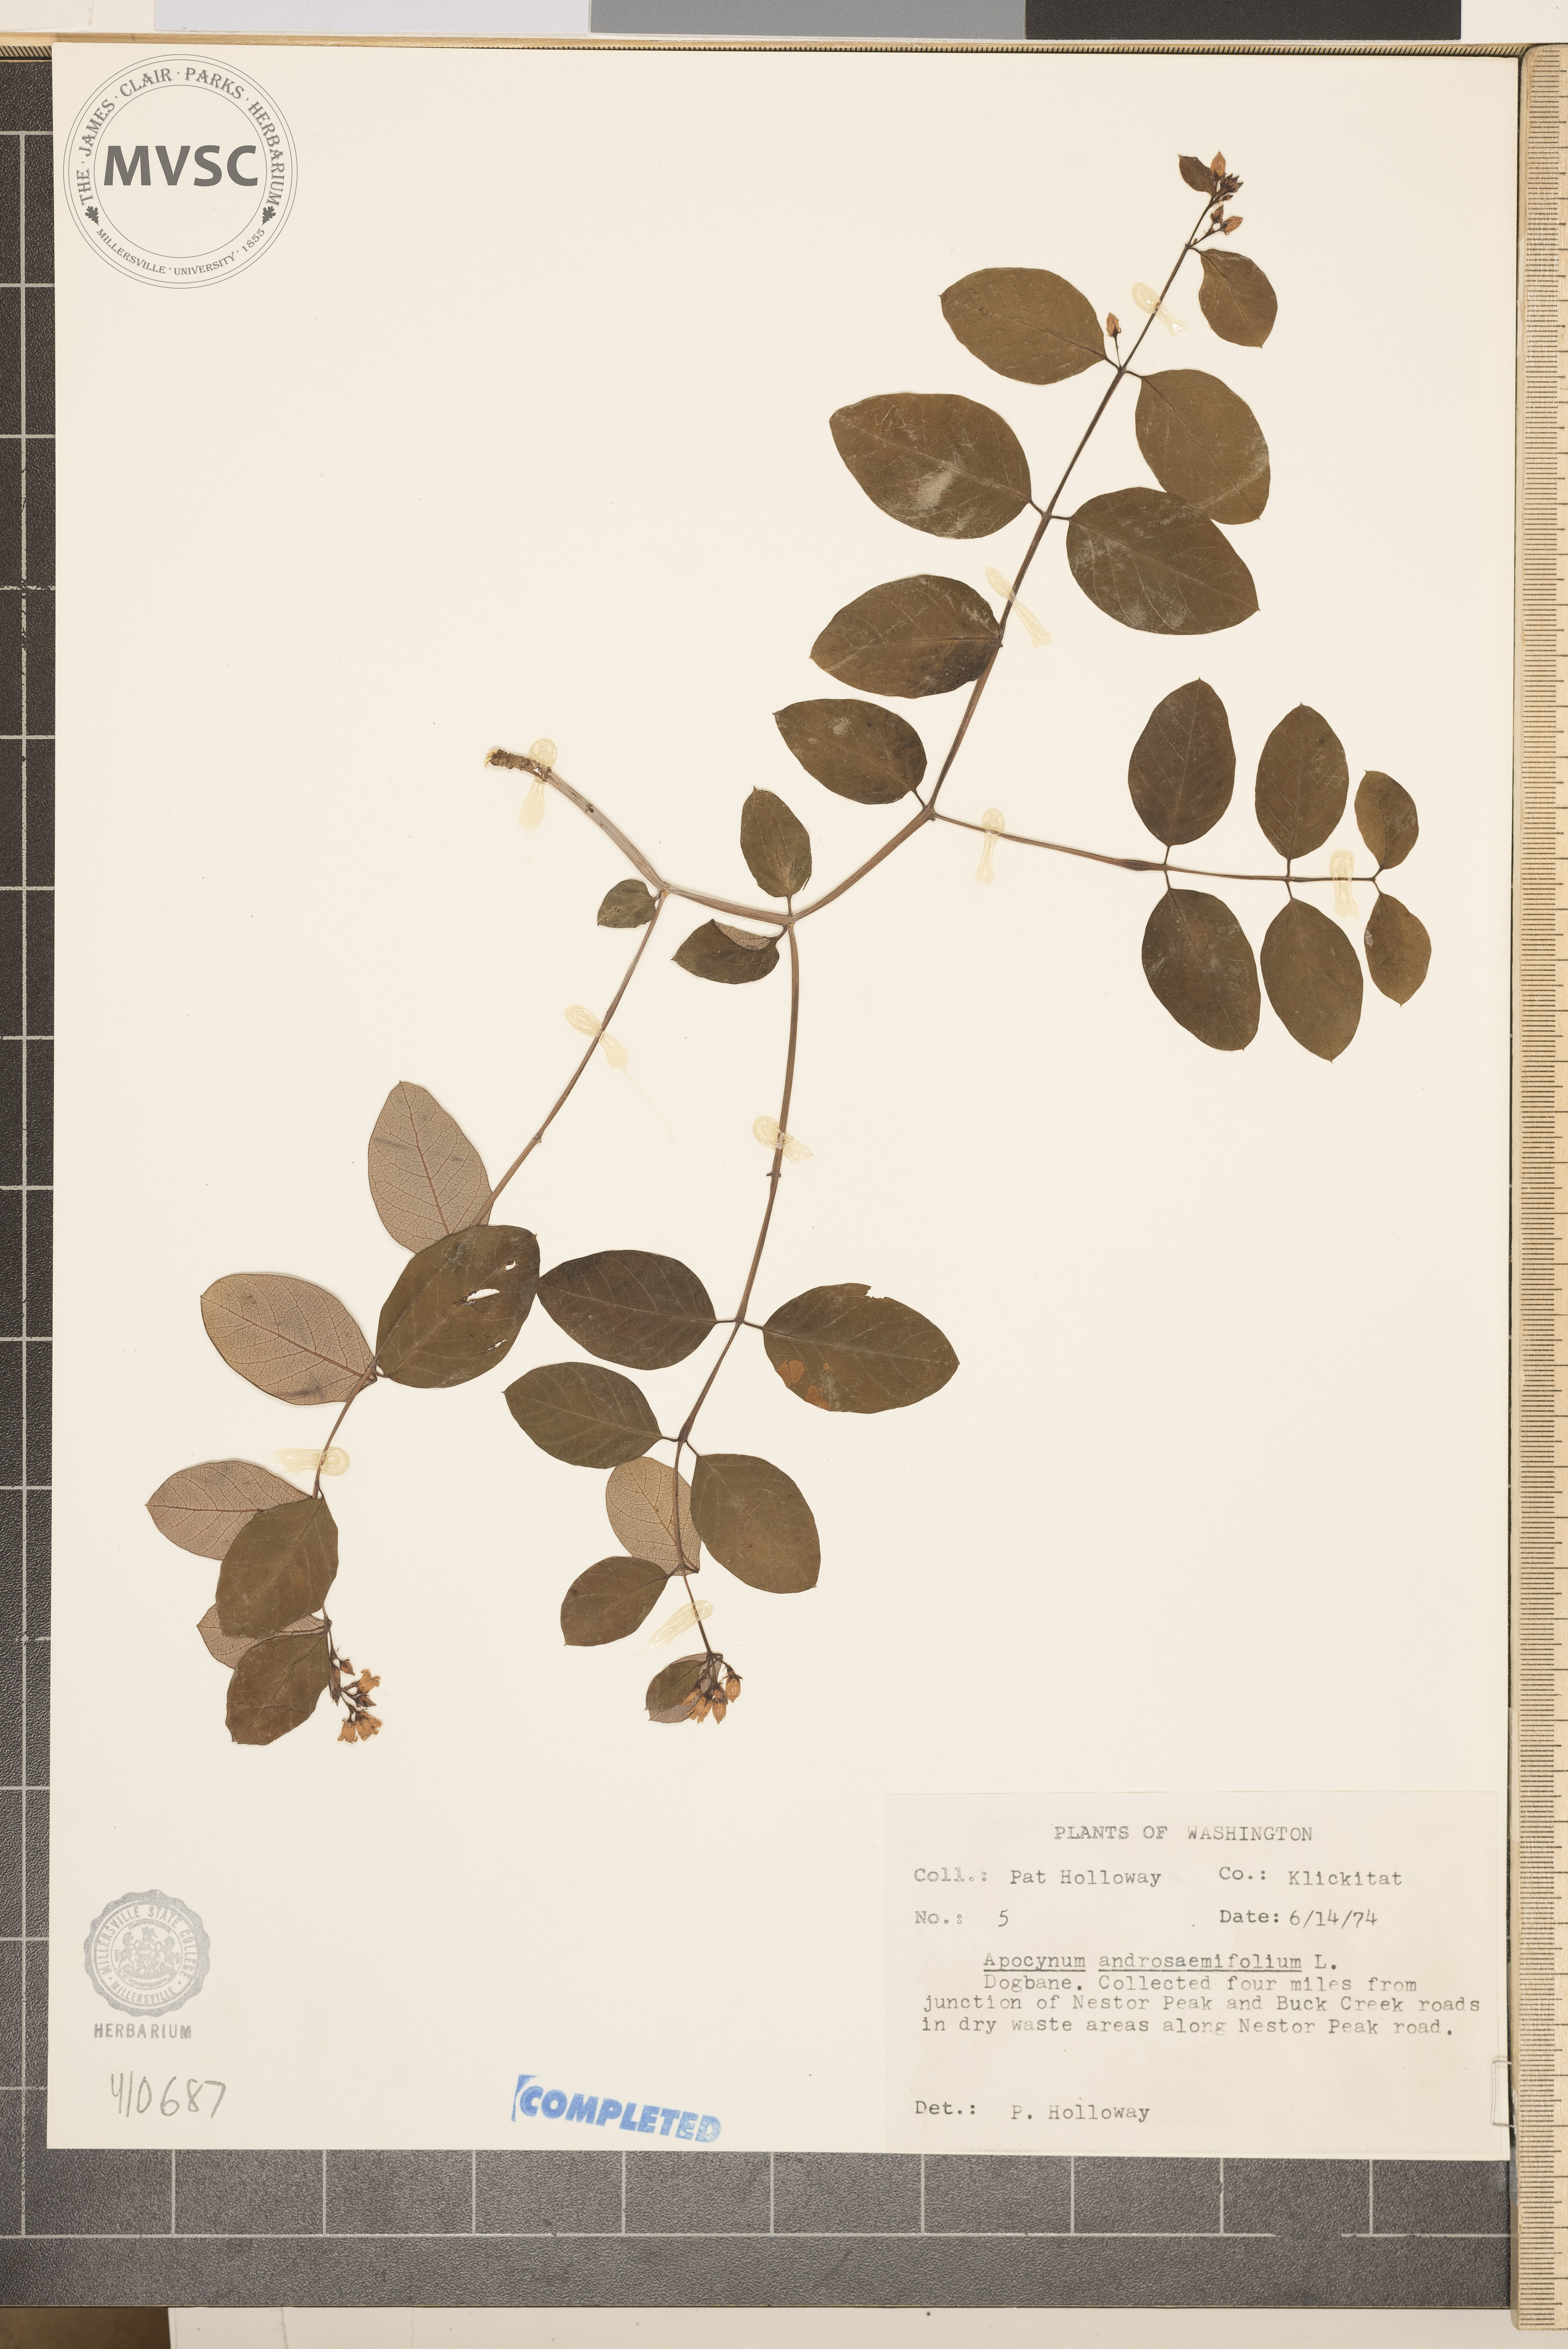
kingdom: Plantae
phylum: Tracheophyta
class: Magnoliopsida
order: Gentianales
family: Apocynaceae
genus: Apocynum
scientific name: Apocynum androsaemifolium
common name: Spreading dogbane
